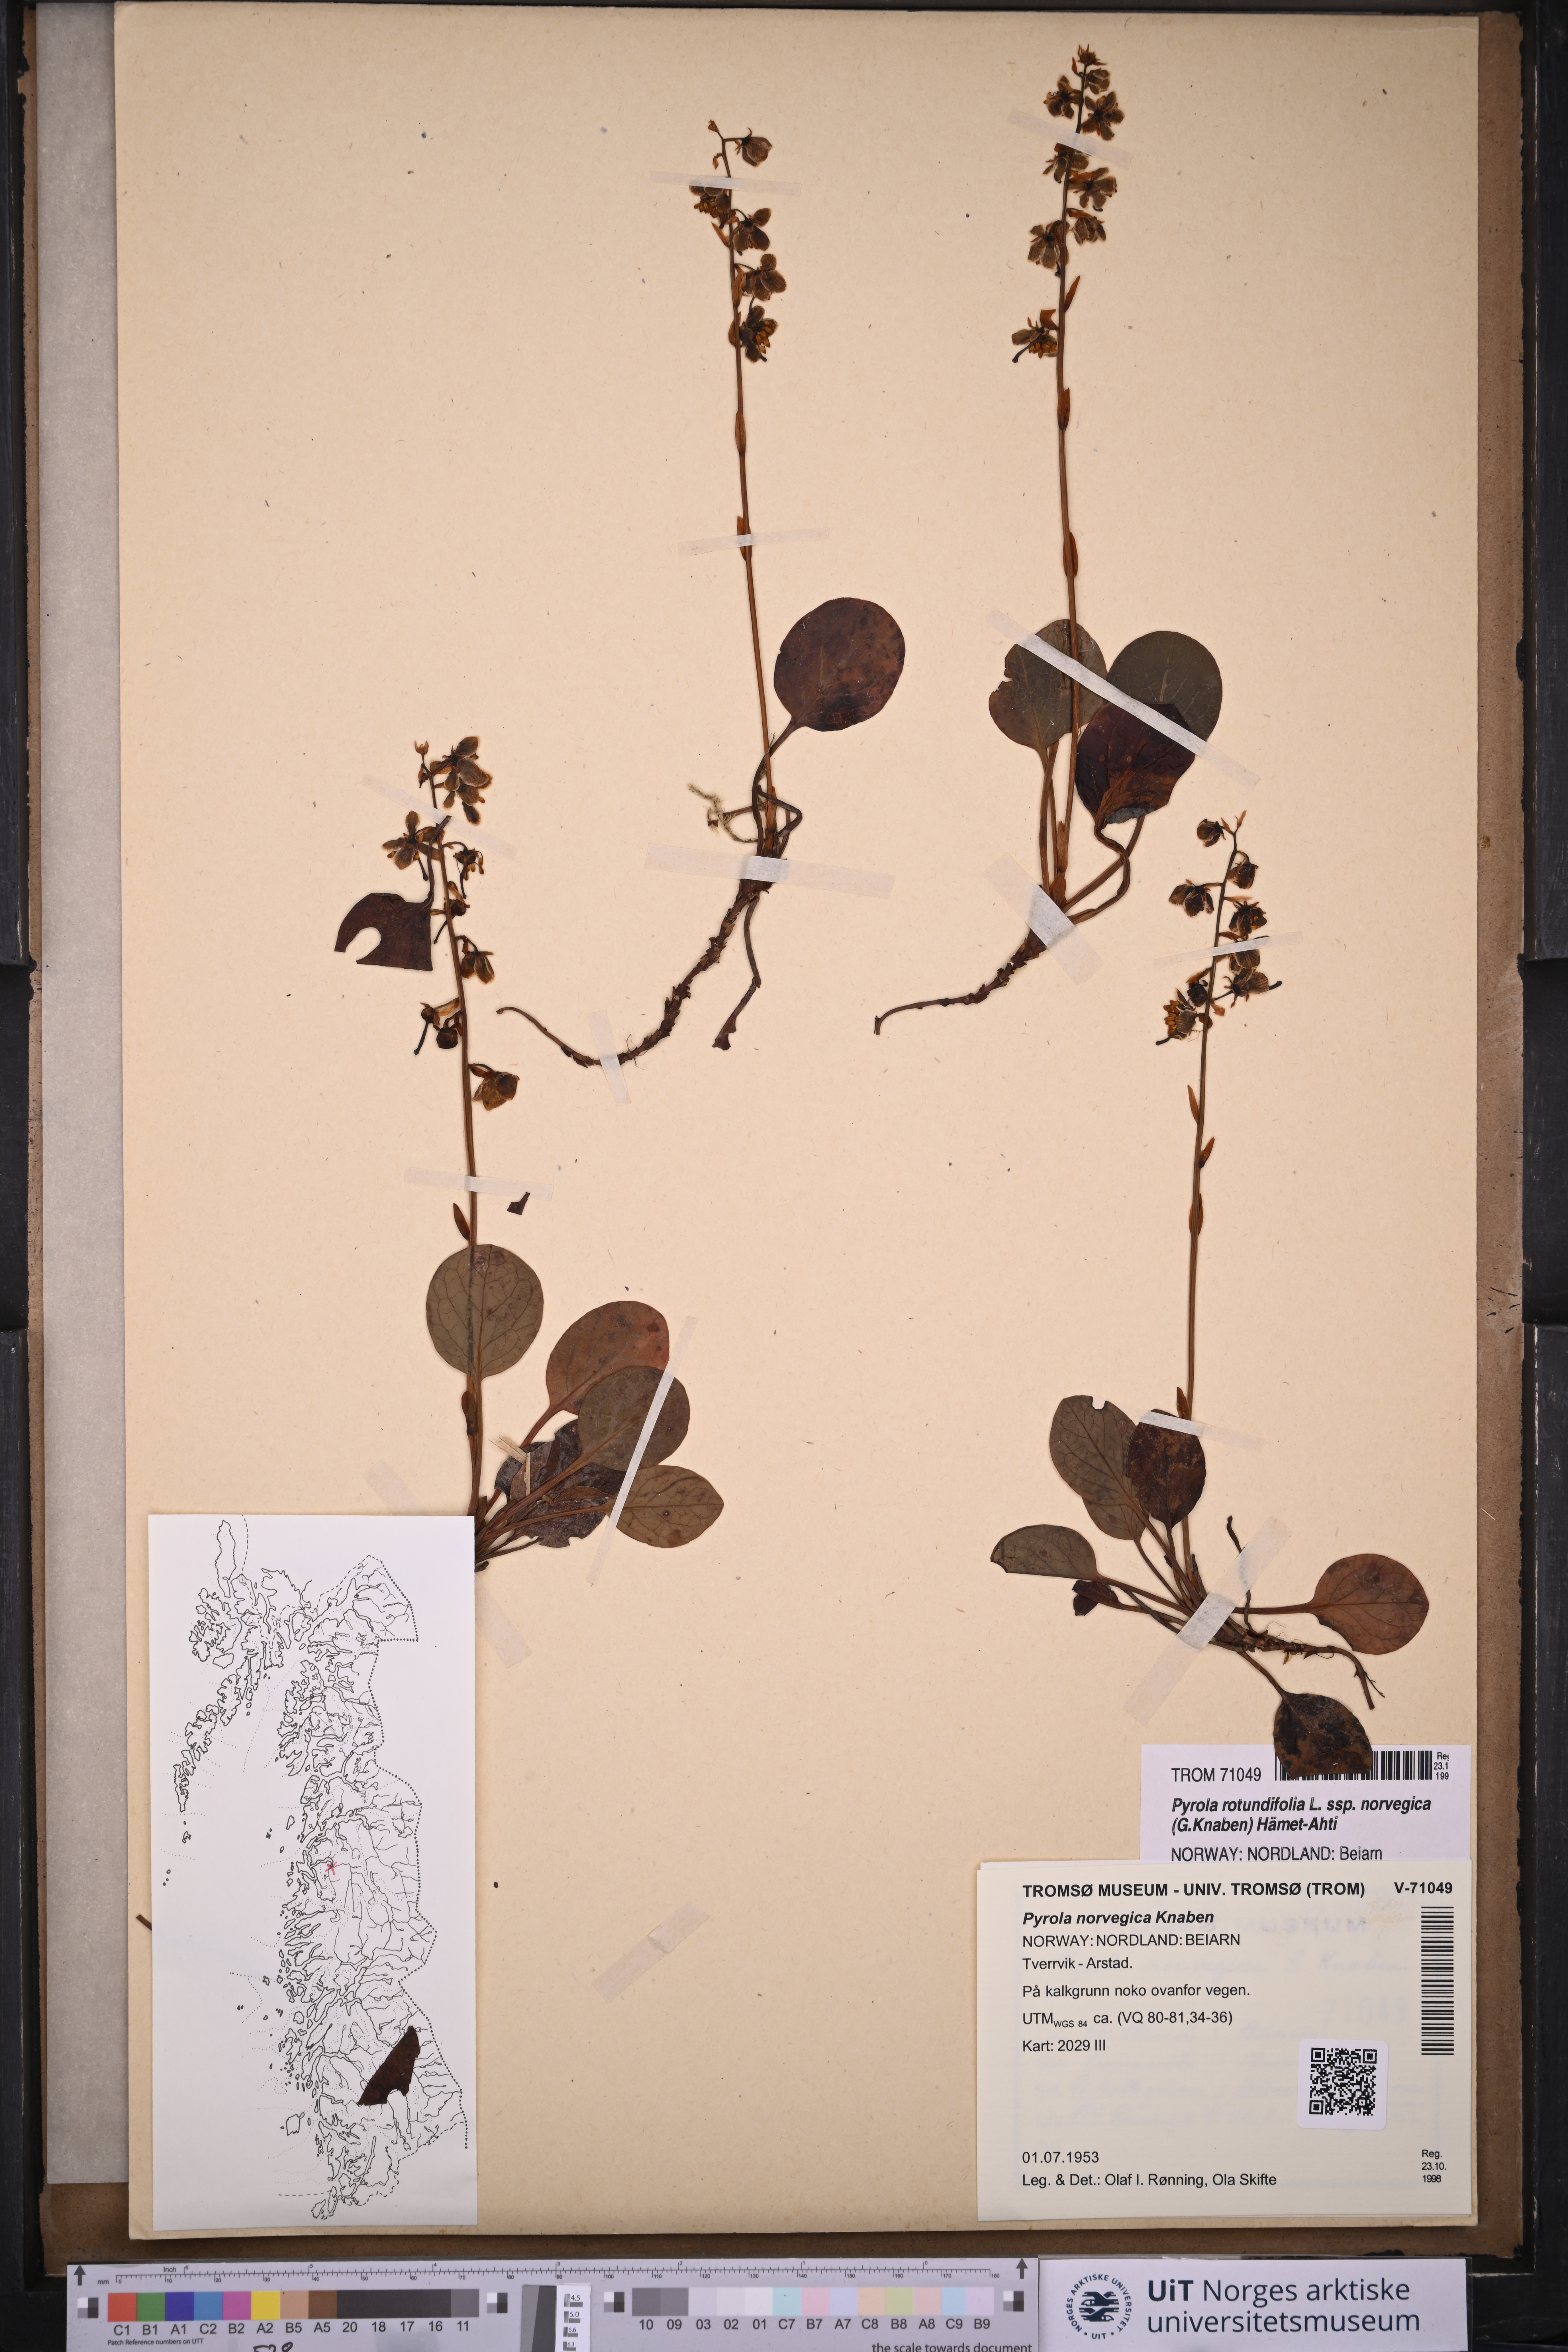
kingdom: Plantae
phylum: Tracheophyta
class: Magnoliopsida
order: Ericales
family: Ericaceae
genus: Pyrola
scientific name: Pyrola rotundifolia
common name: Round-leaved wintergreen
